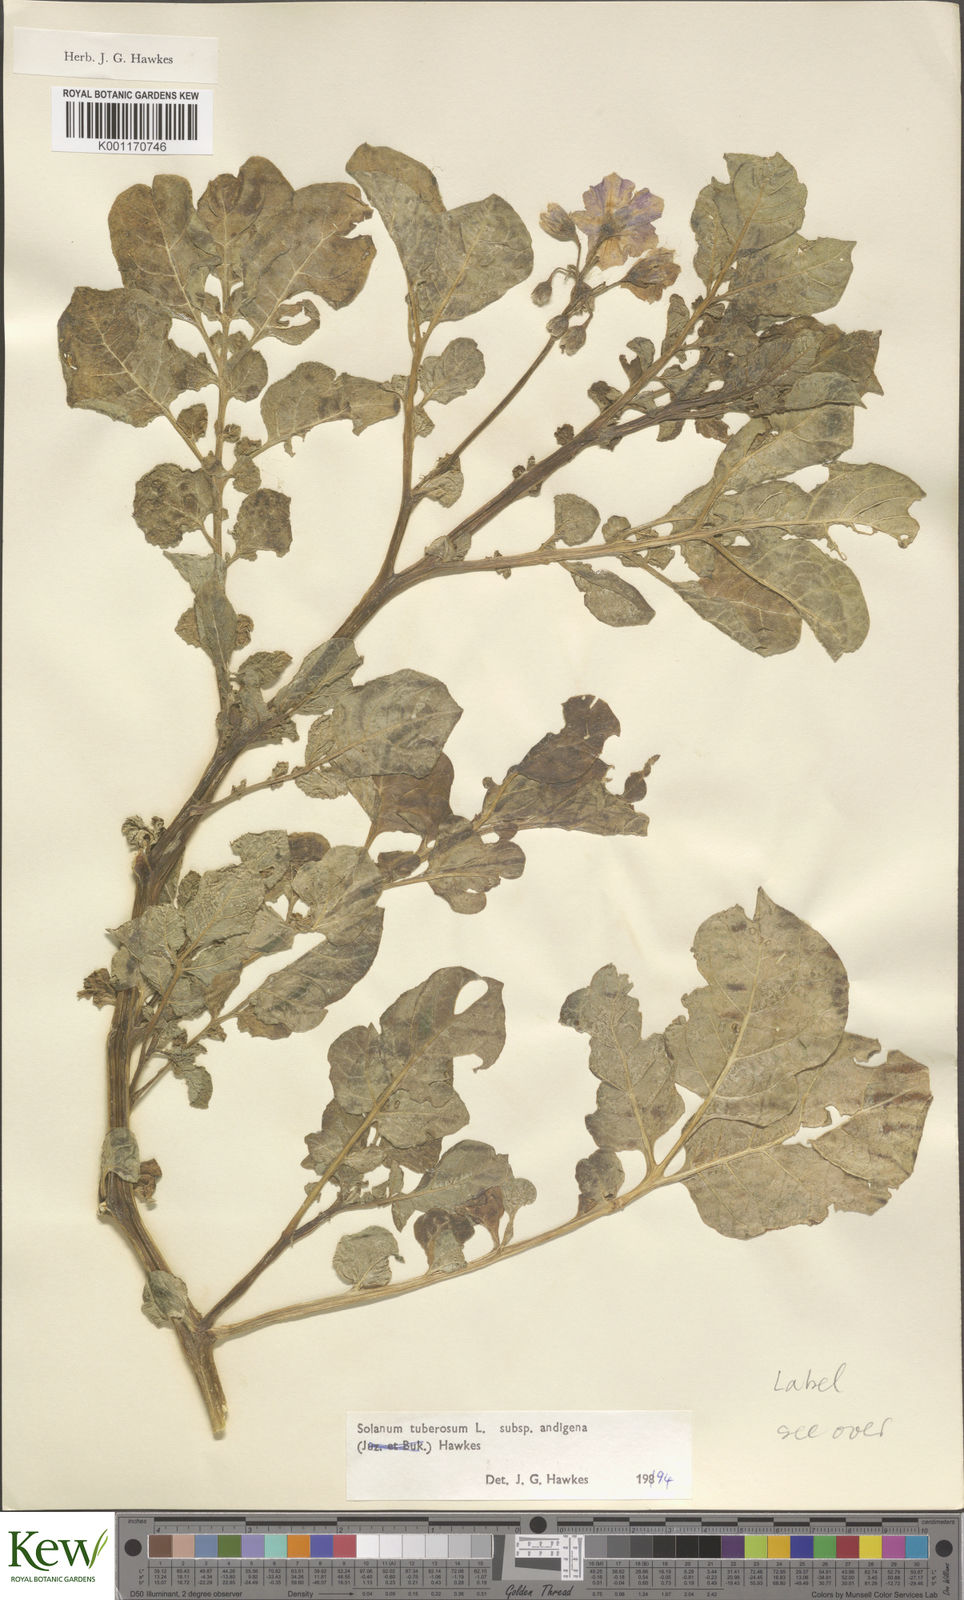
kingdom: Plantae
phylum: Tracheophyta
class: Magnoliopsida
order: Solanales
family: Solanaceae
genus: Solanum
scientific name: Solanum tuberosum
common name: Potato
